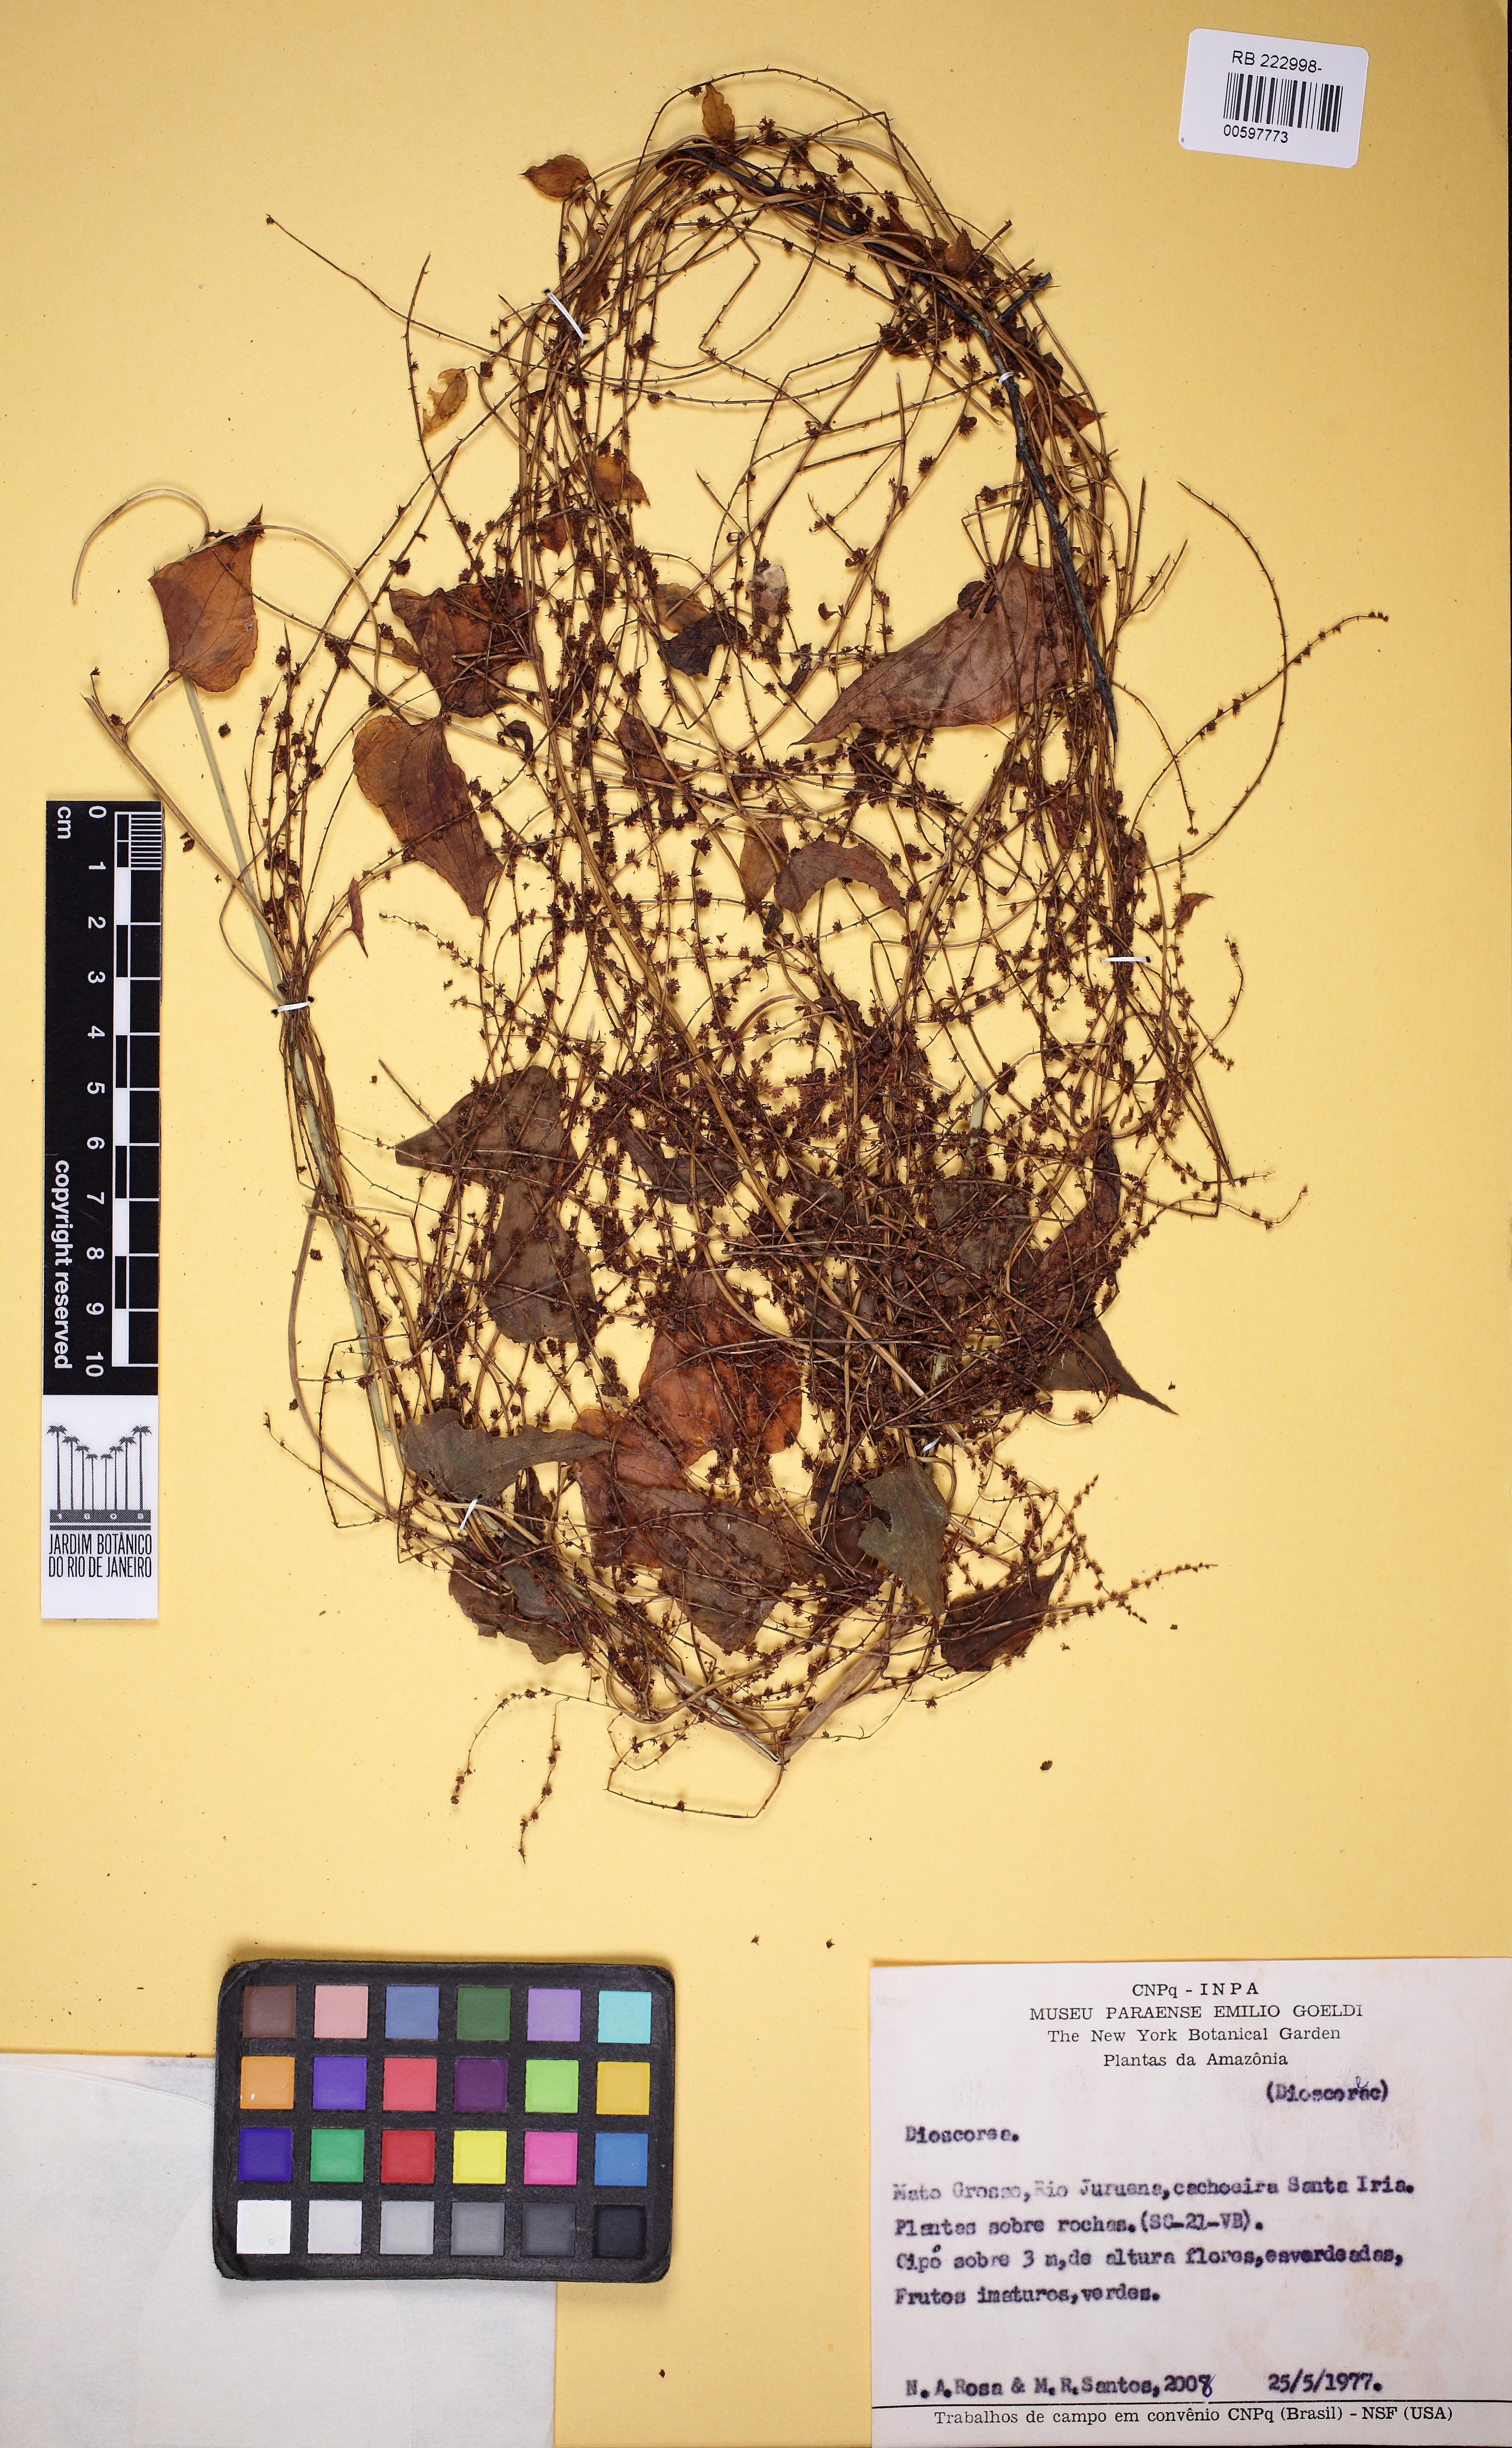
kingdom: Plantae
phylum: Tracheophyta
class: Liliopsida
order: Dioscoreales
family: Dioscoreaceae
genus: Dioscorea
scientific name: Dioscorea
